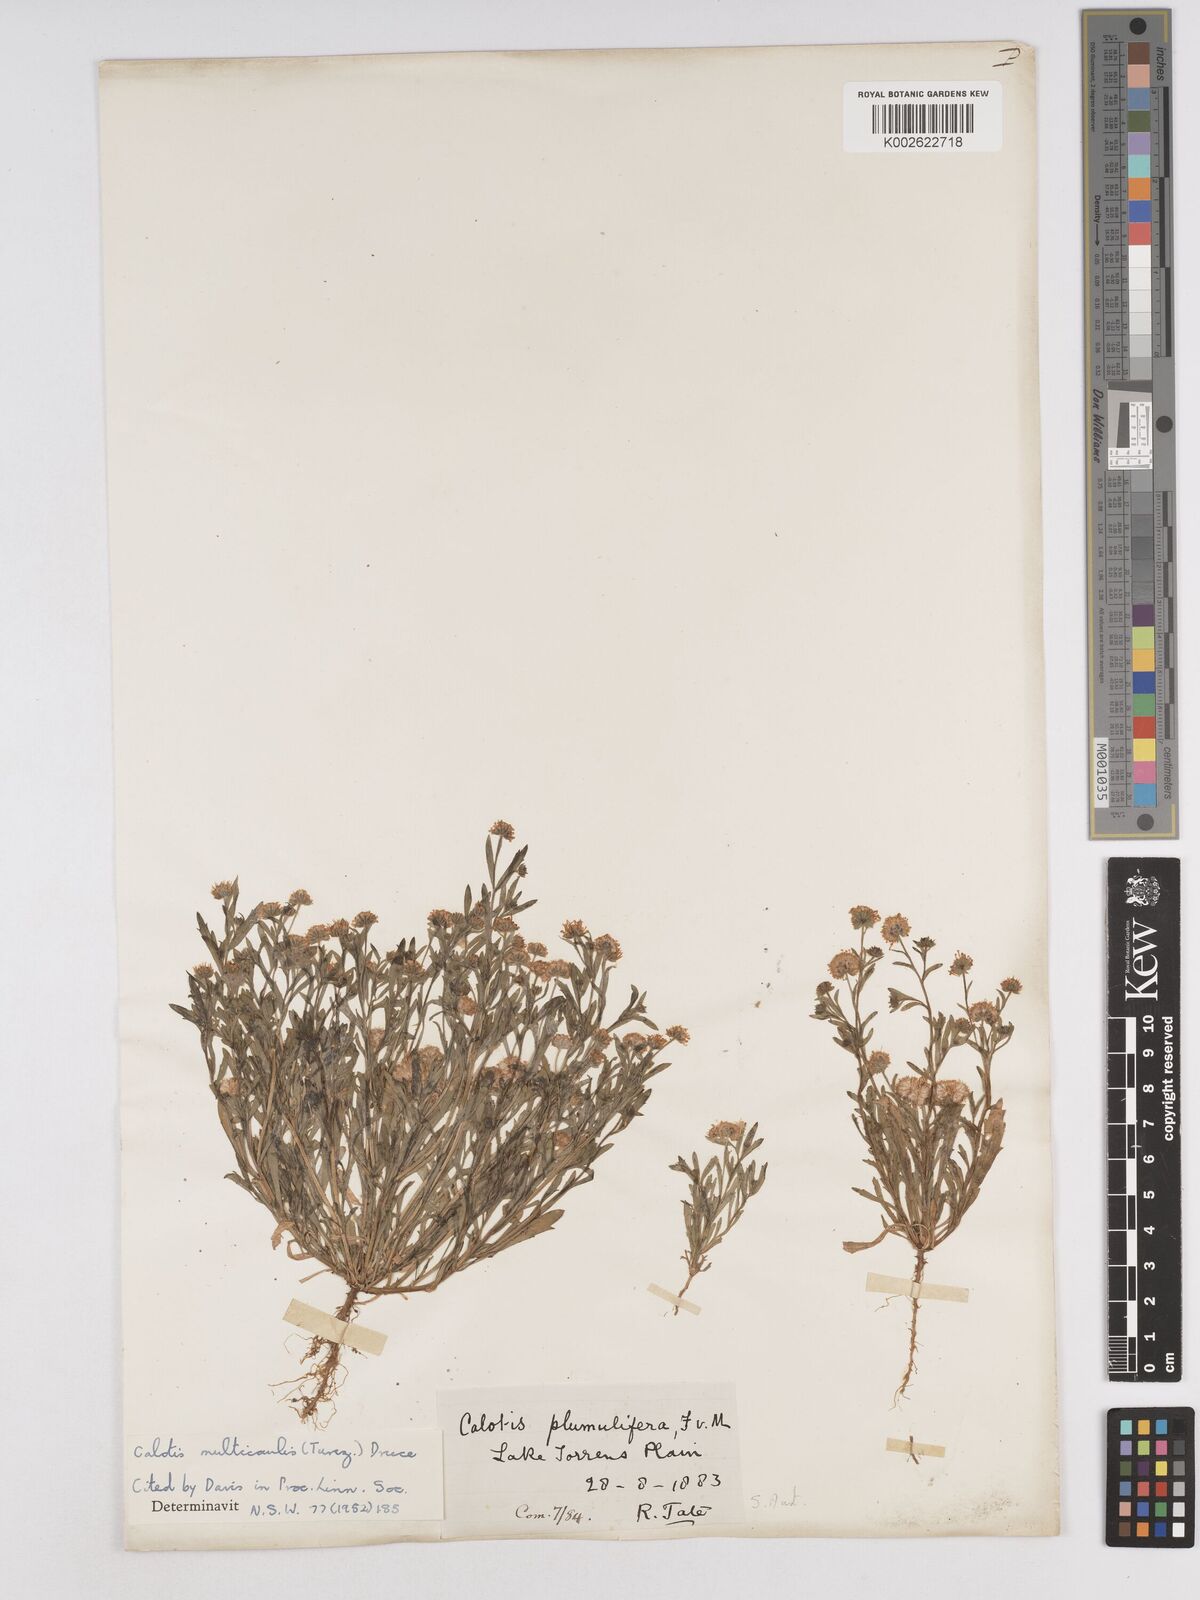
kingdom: Plantae
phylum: Tracheophyta
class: Magnoliopsida
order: Asterales
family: Asteraceae
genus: Calotis
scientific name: Calotis multicaulis
